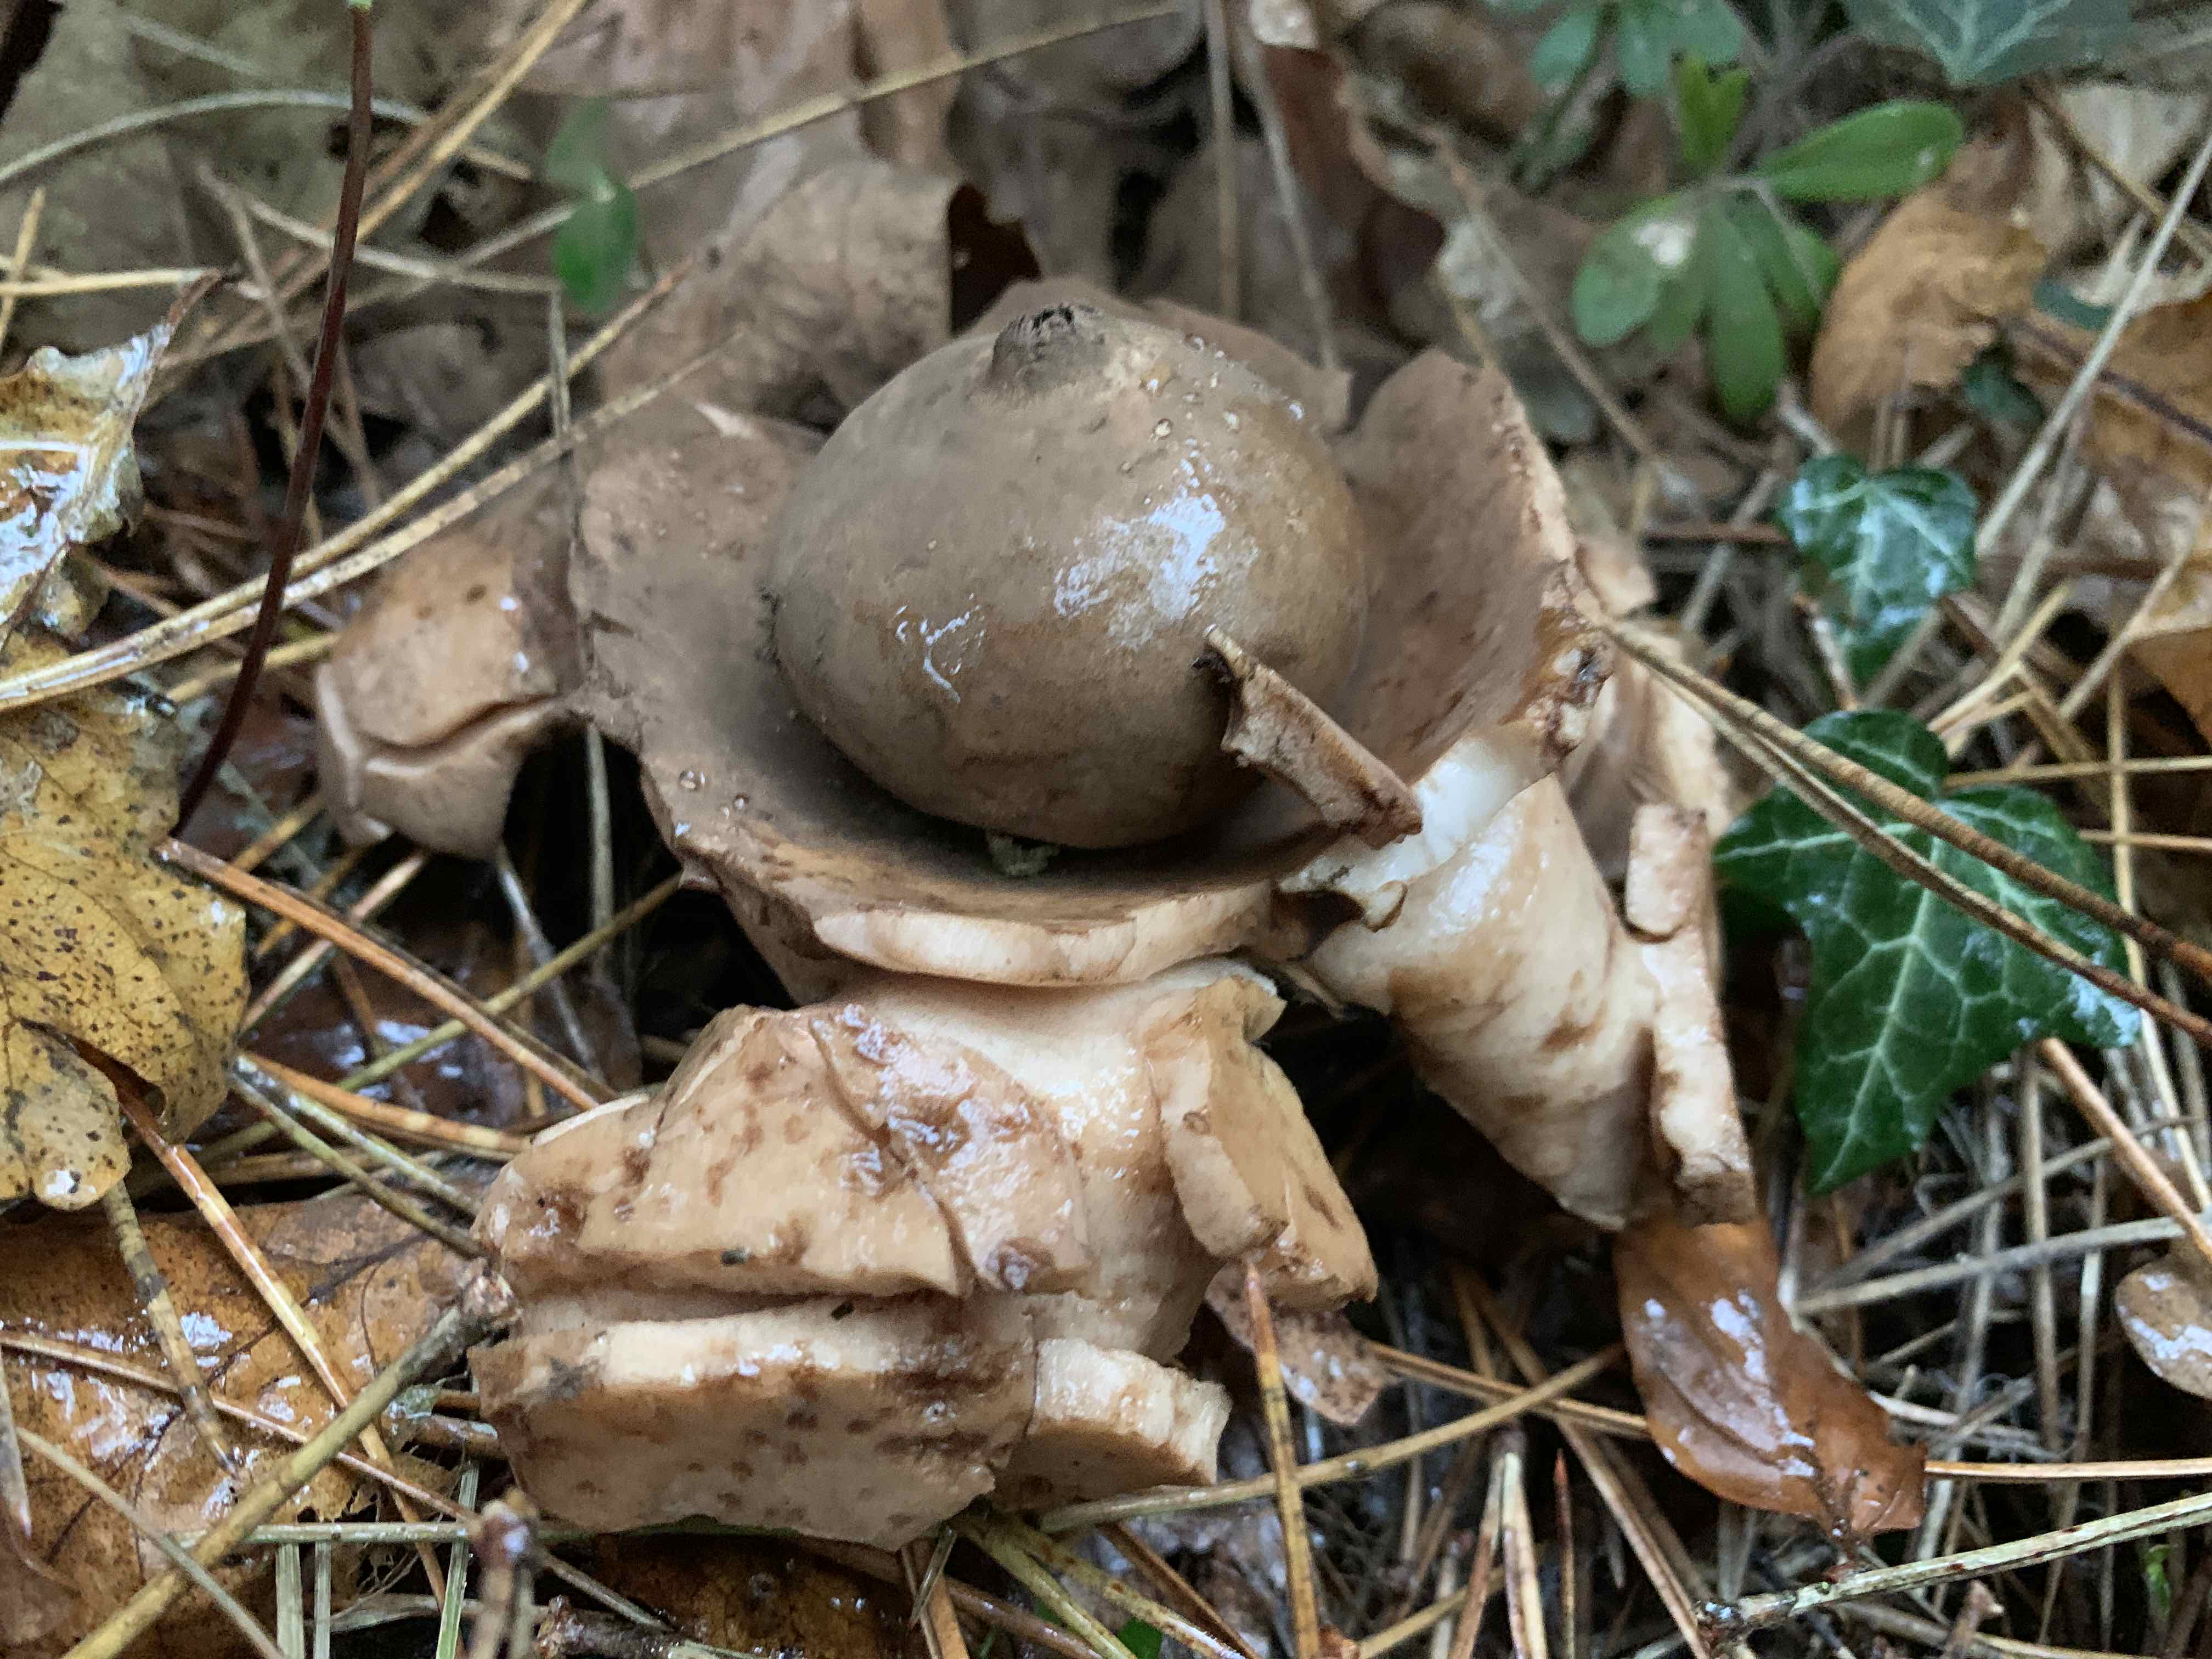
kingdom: Fungi
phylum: Basidiomycota
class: Agaricomycetes
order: Geastrales
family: Geastraceae
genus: Geastrum
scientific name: Geastrum michelianum
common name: kødet stjernebold
